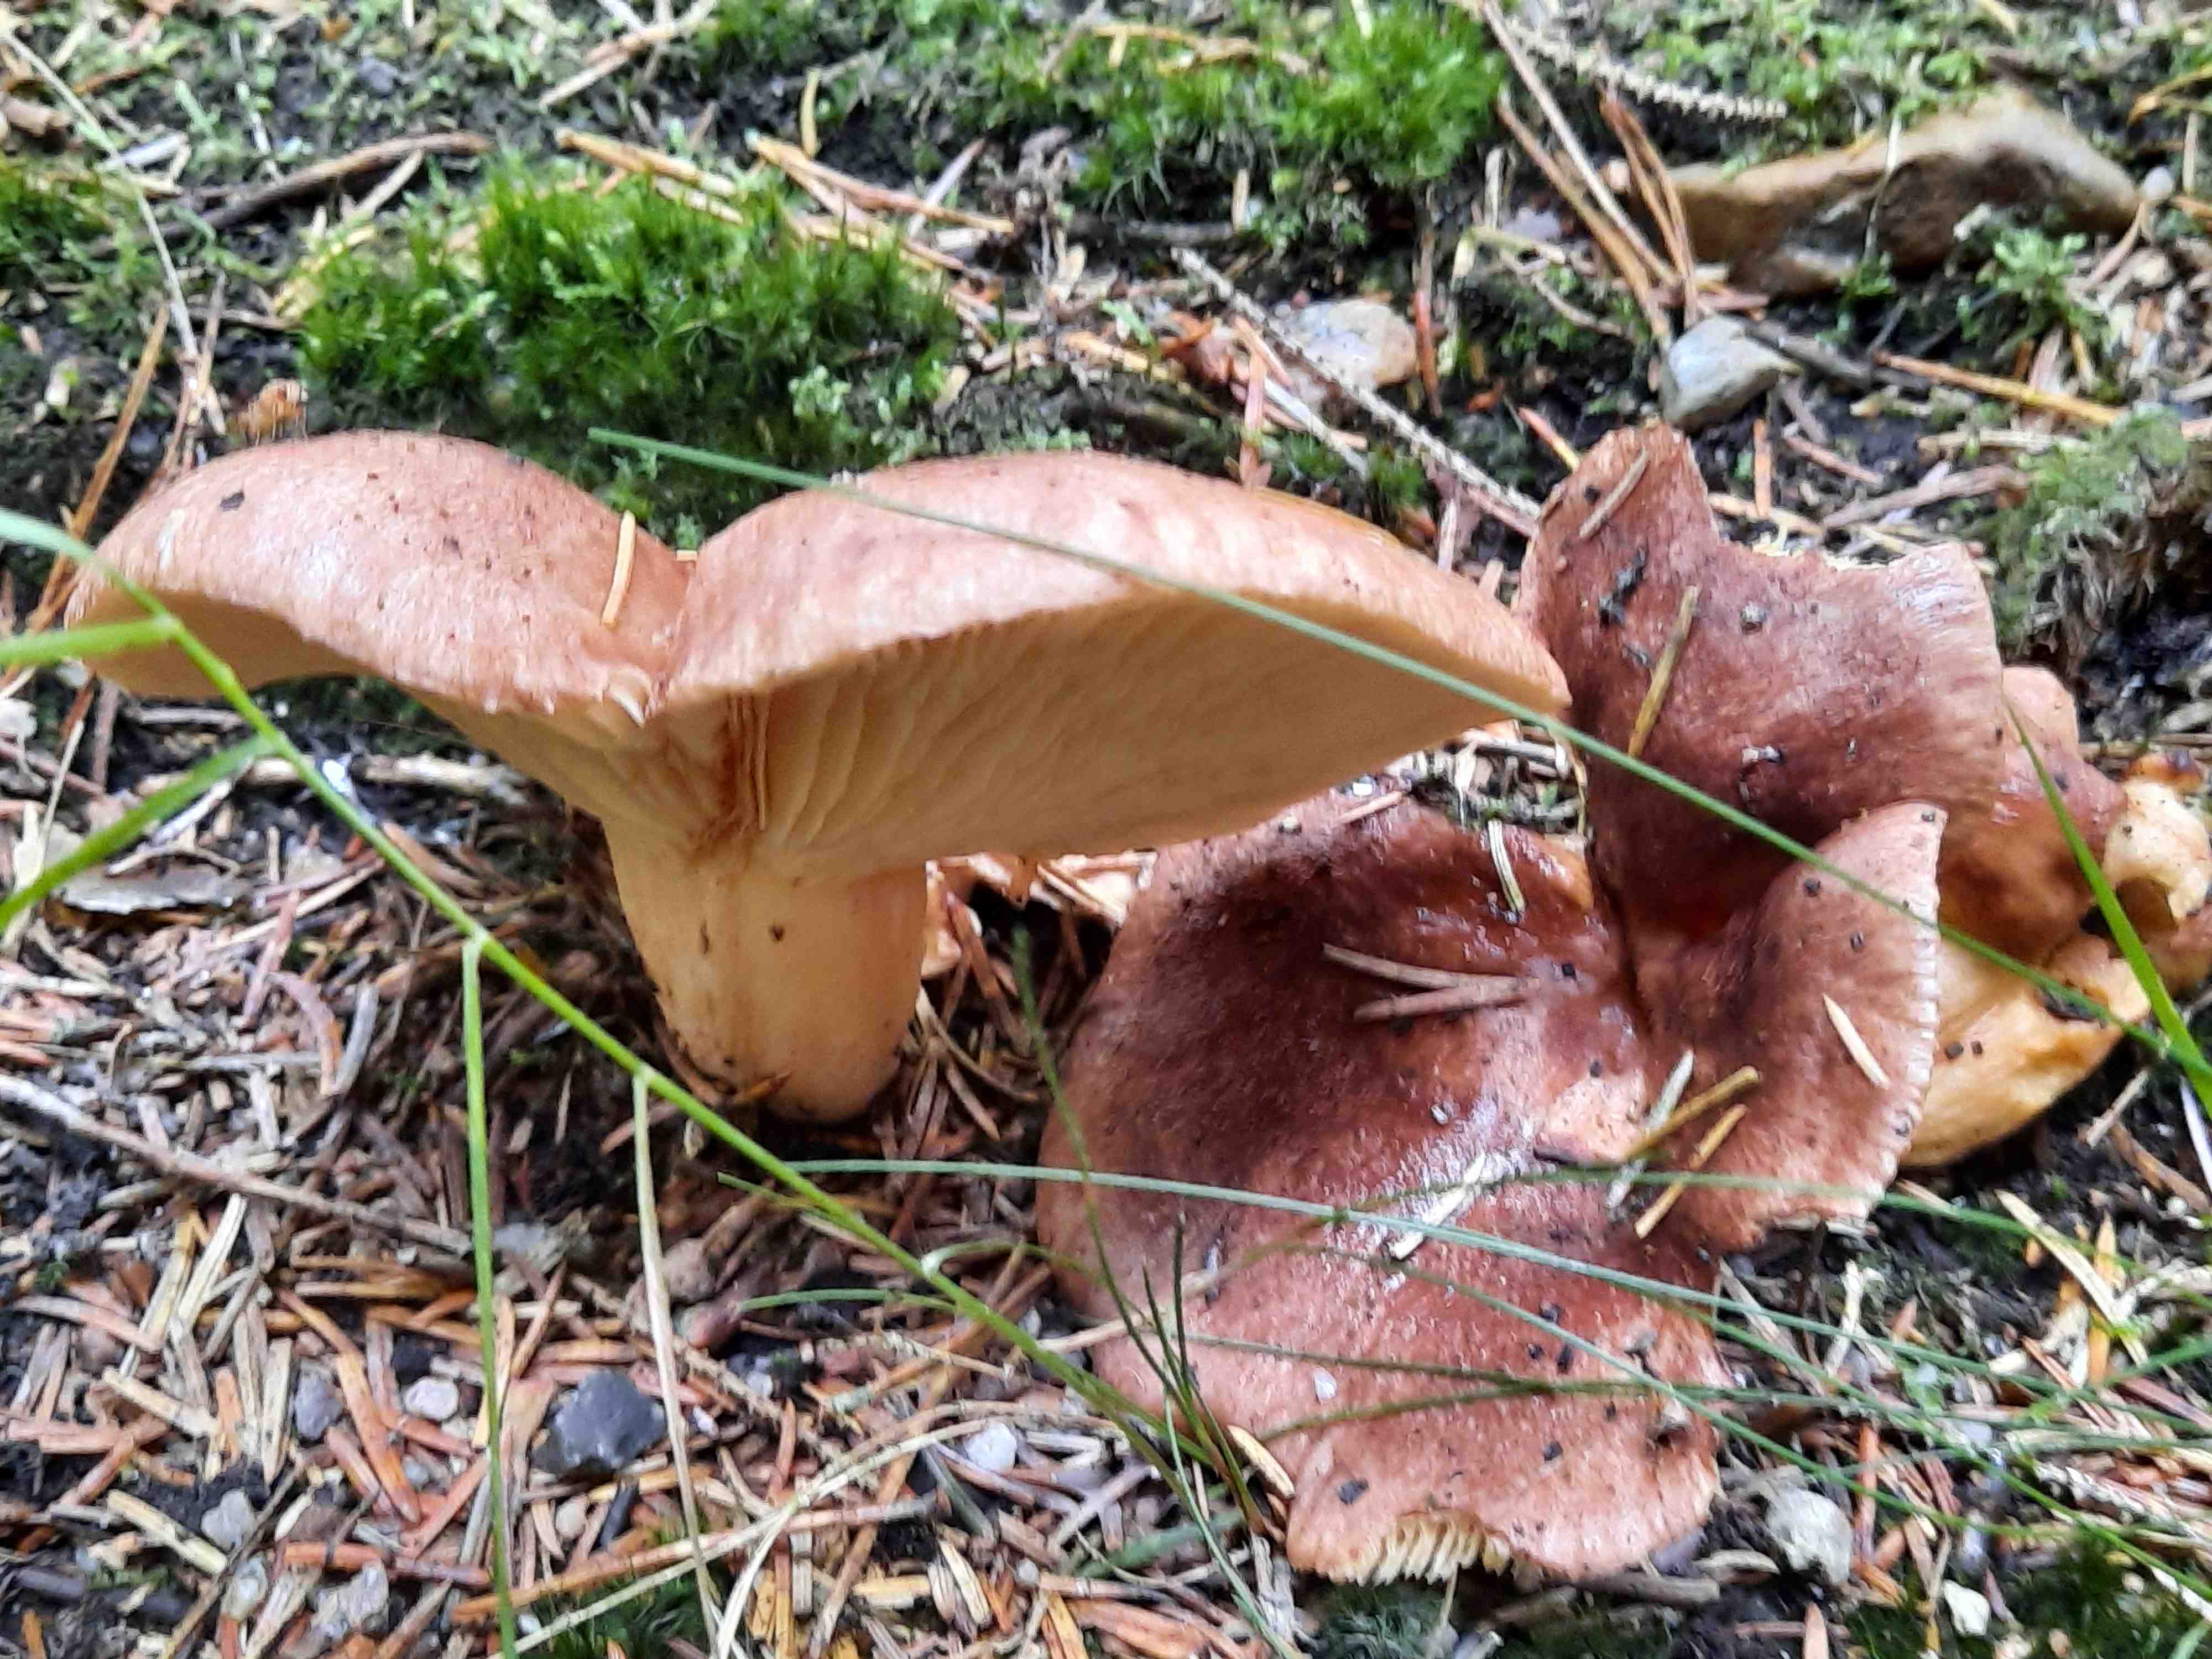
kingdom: Fungi
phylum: Basidiomycota
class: Agaricomycetes
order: Russulales
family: Russulaceae
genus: Lactarius
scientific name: Lactarius hysginus
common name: teglfarvet mælkehat
